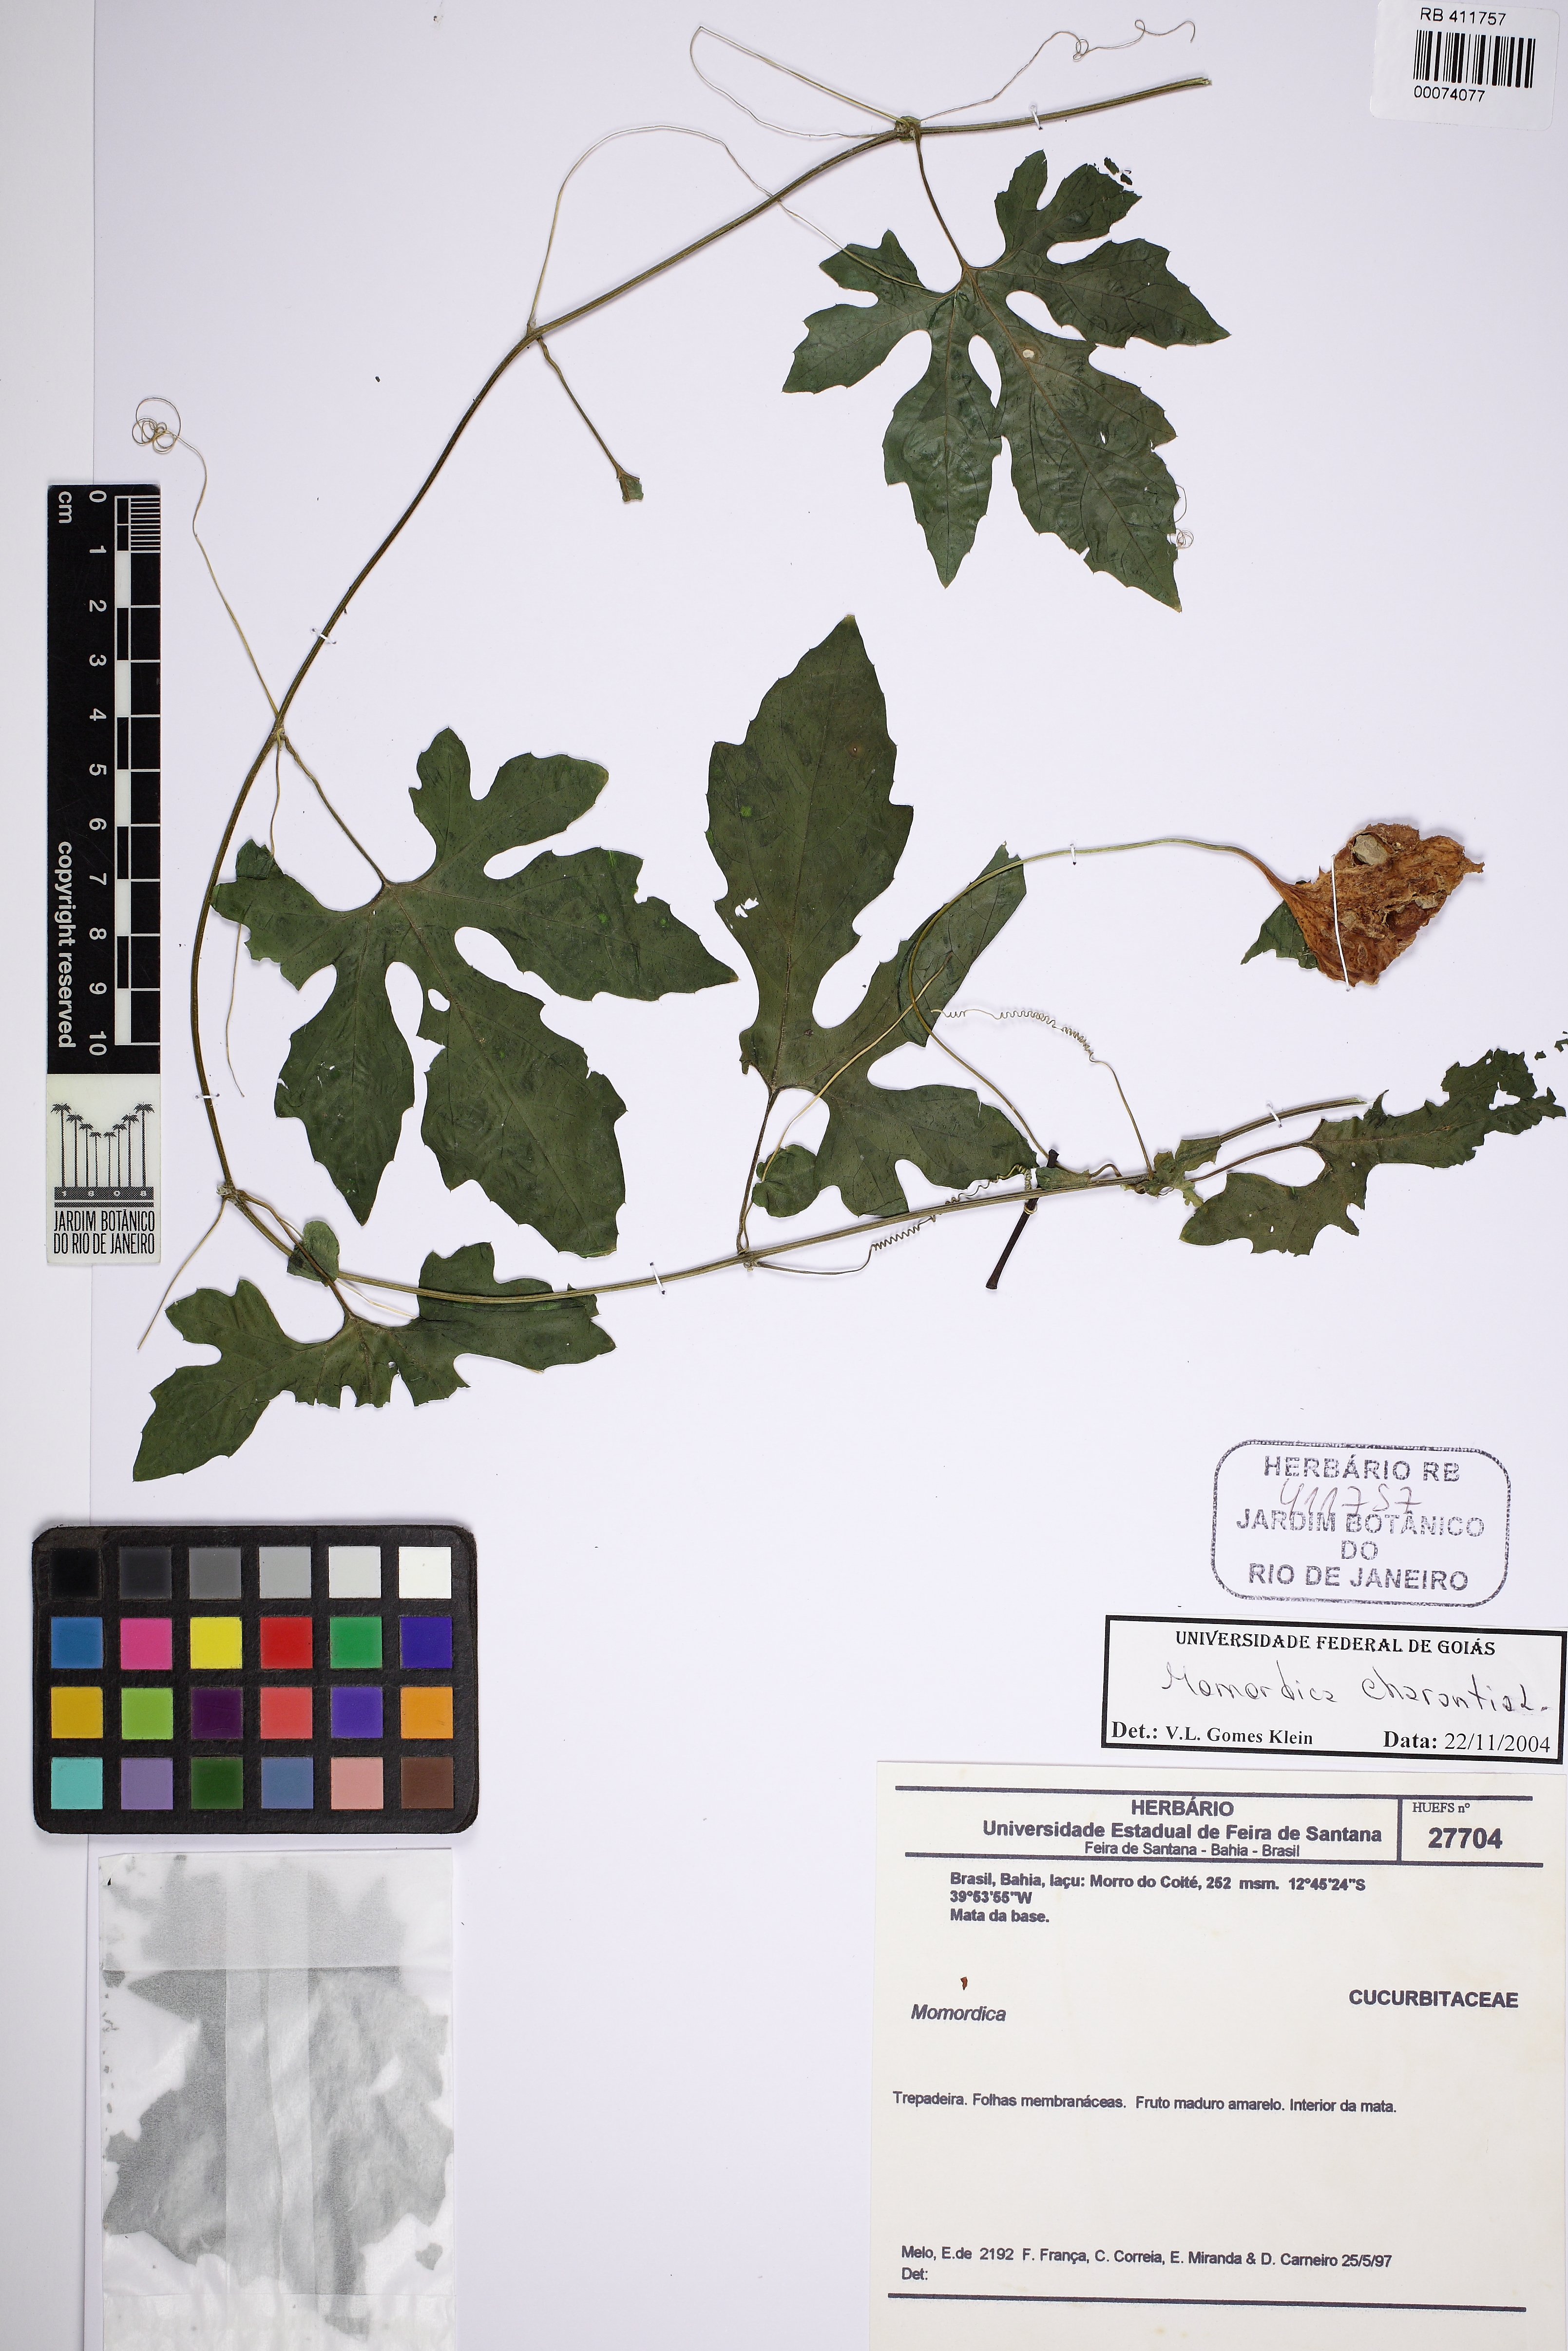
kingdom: Plantae
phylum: Tracheophyta
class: Magnoliopsida
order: Cucurbitales
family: Cucurbitaceae
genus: Momordica
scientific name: Momordica charantia
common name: Balsampear
